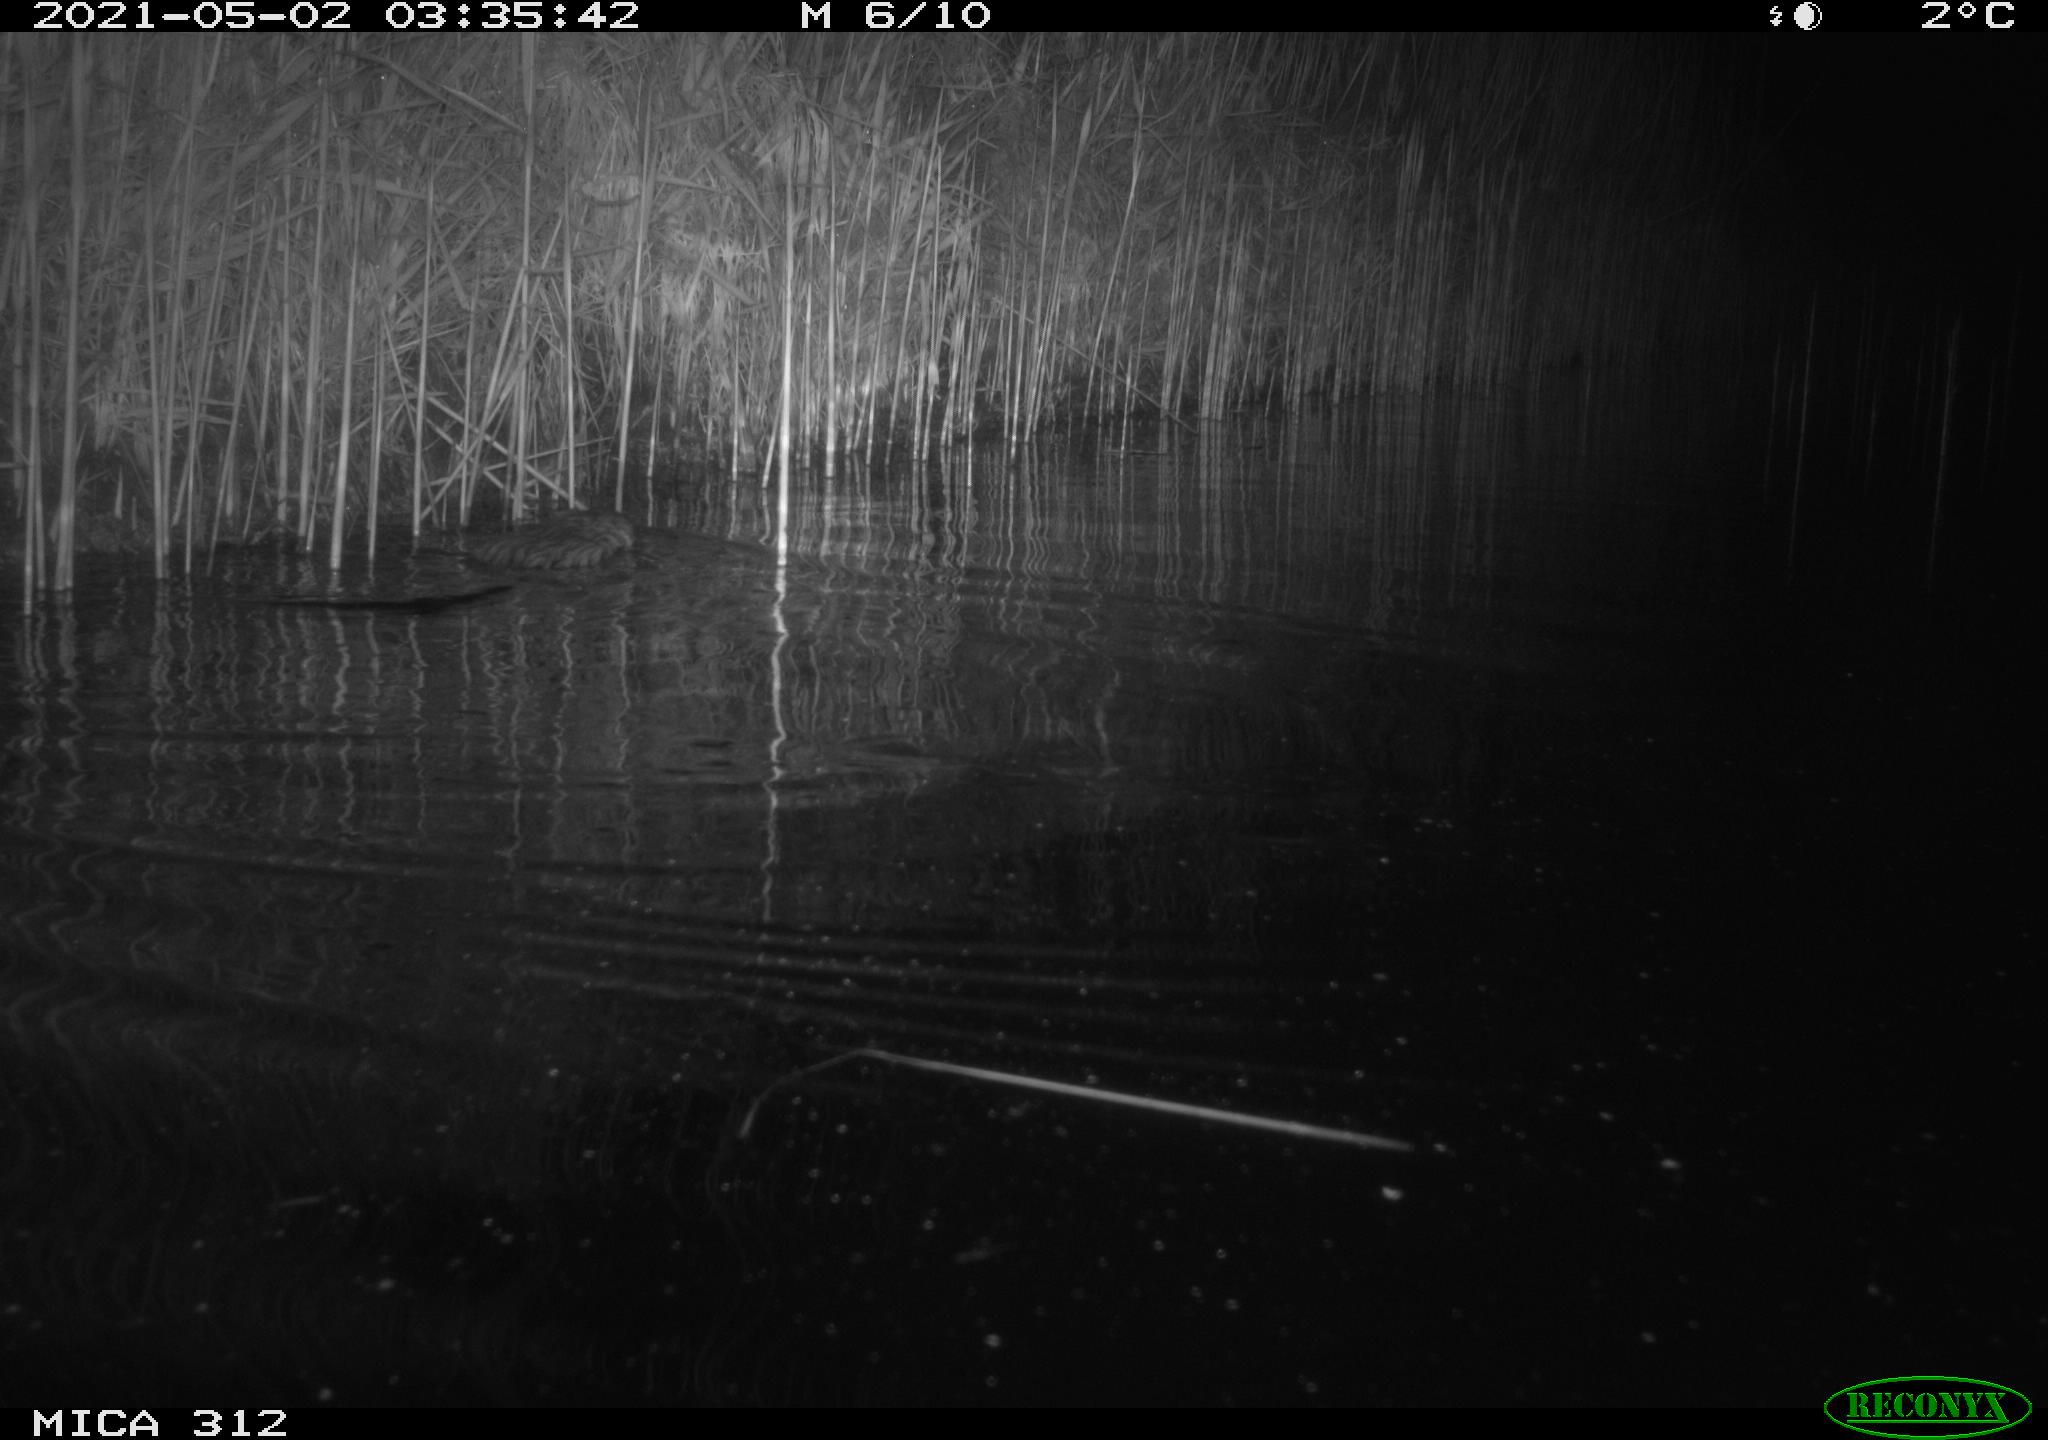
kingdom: Animalia
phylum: Chordata
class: Mammalia
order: Rodentia
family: Cricetidae
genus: Ondatra
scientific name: Ondatra zibethicus
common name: Muskrat
